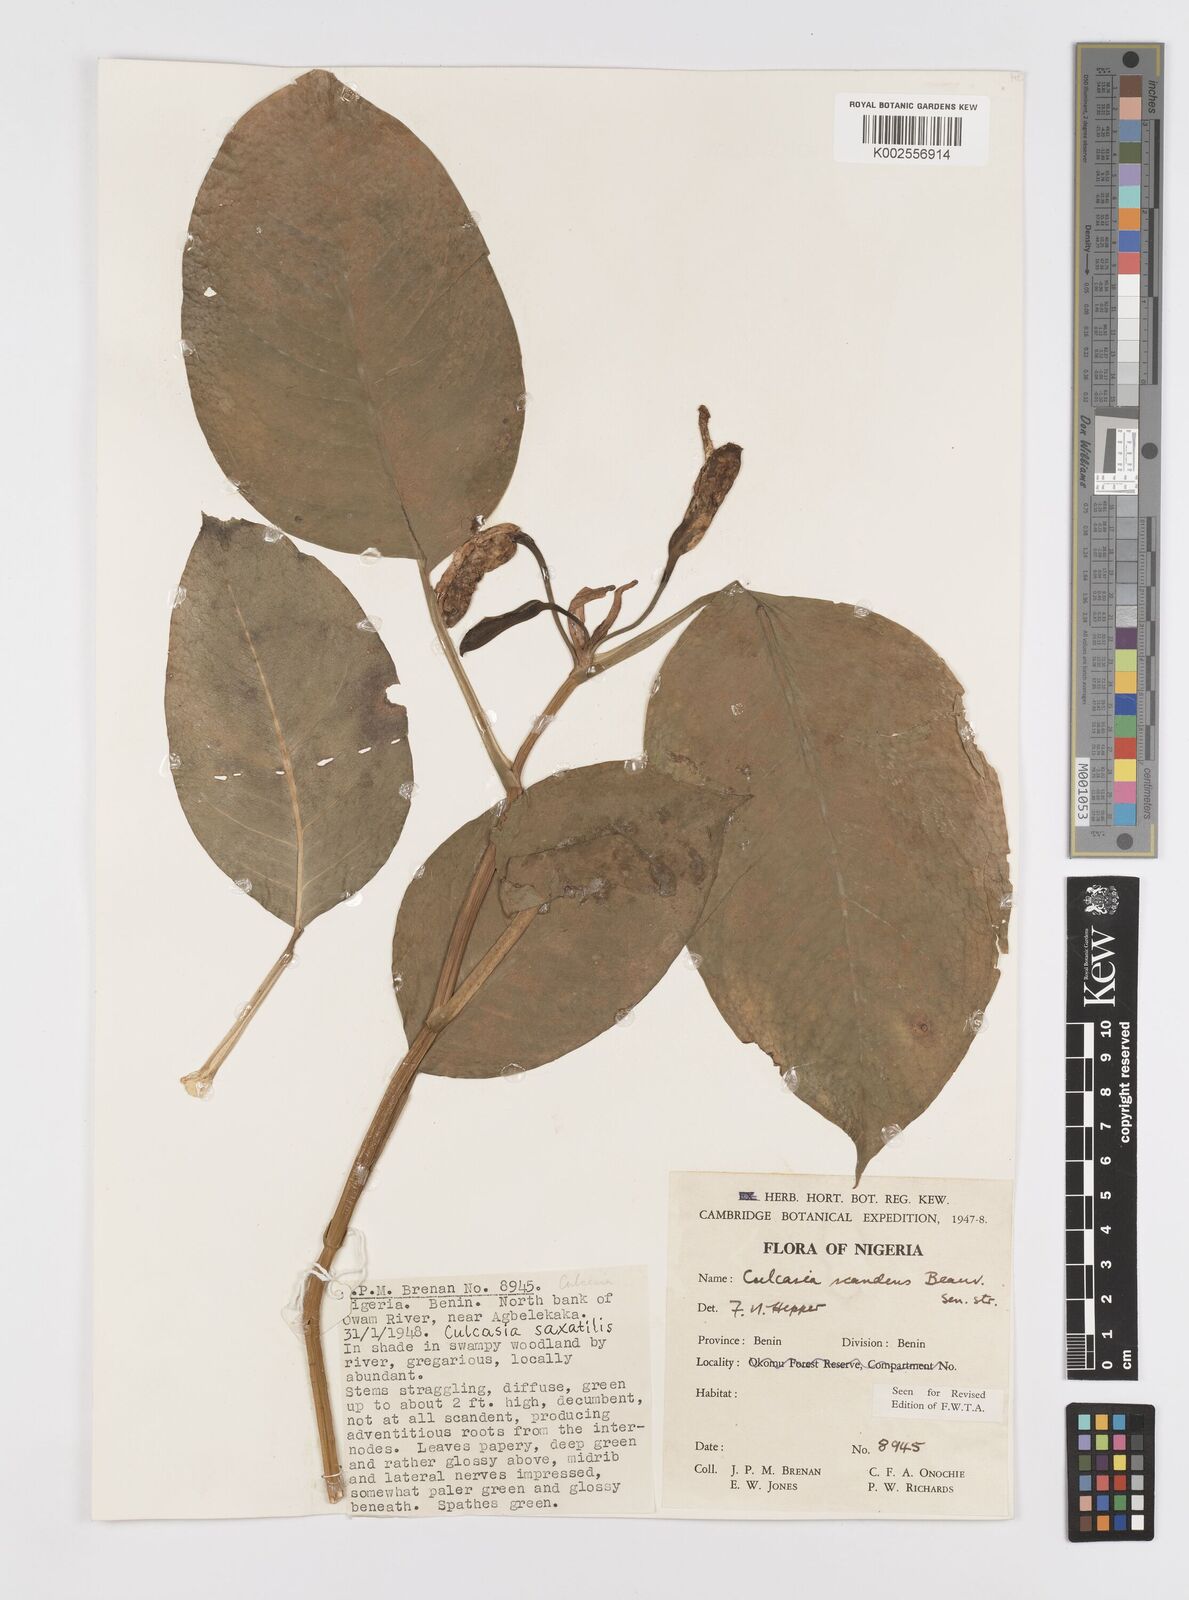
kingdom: Plantae
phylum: Tracheophyta
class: Liliopsida
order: Alismatales
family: Araceae
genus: Culcasia
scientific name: Culcasia scandens
